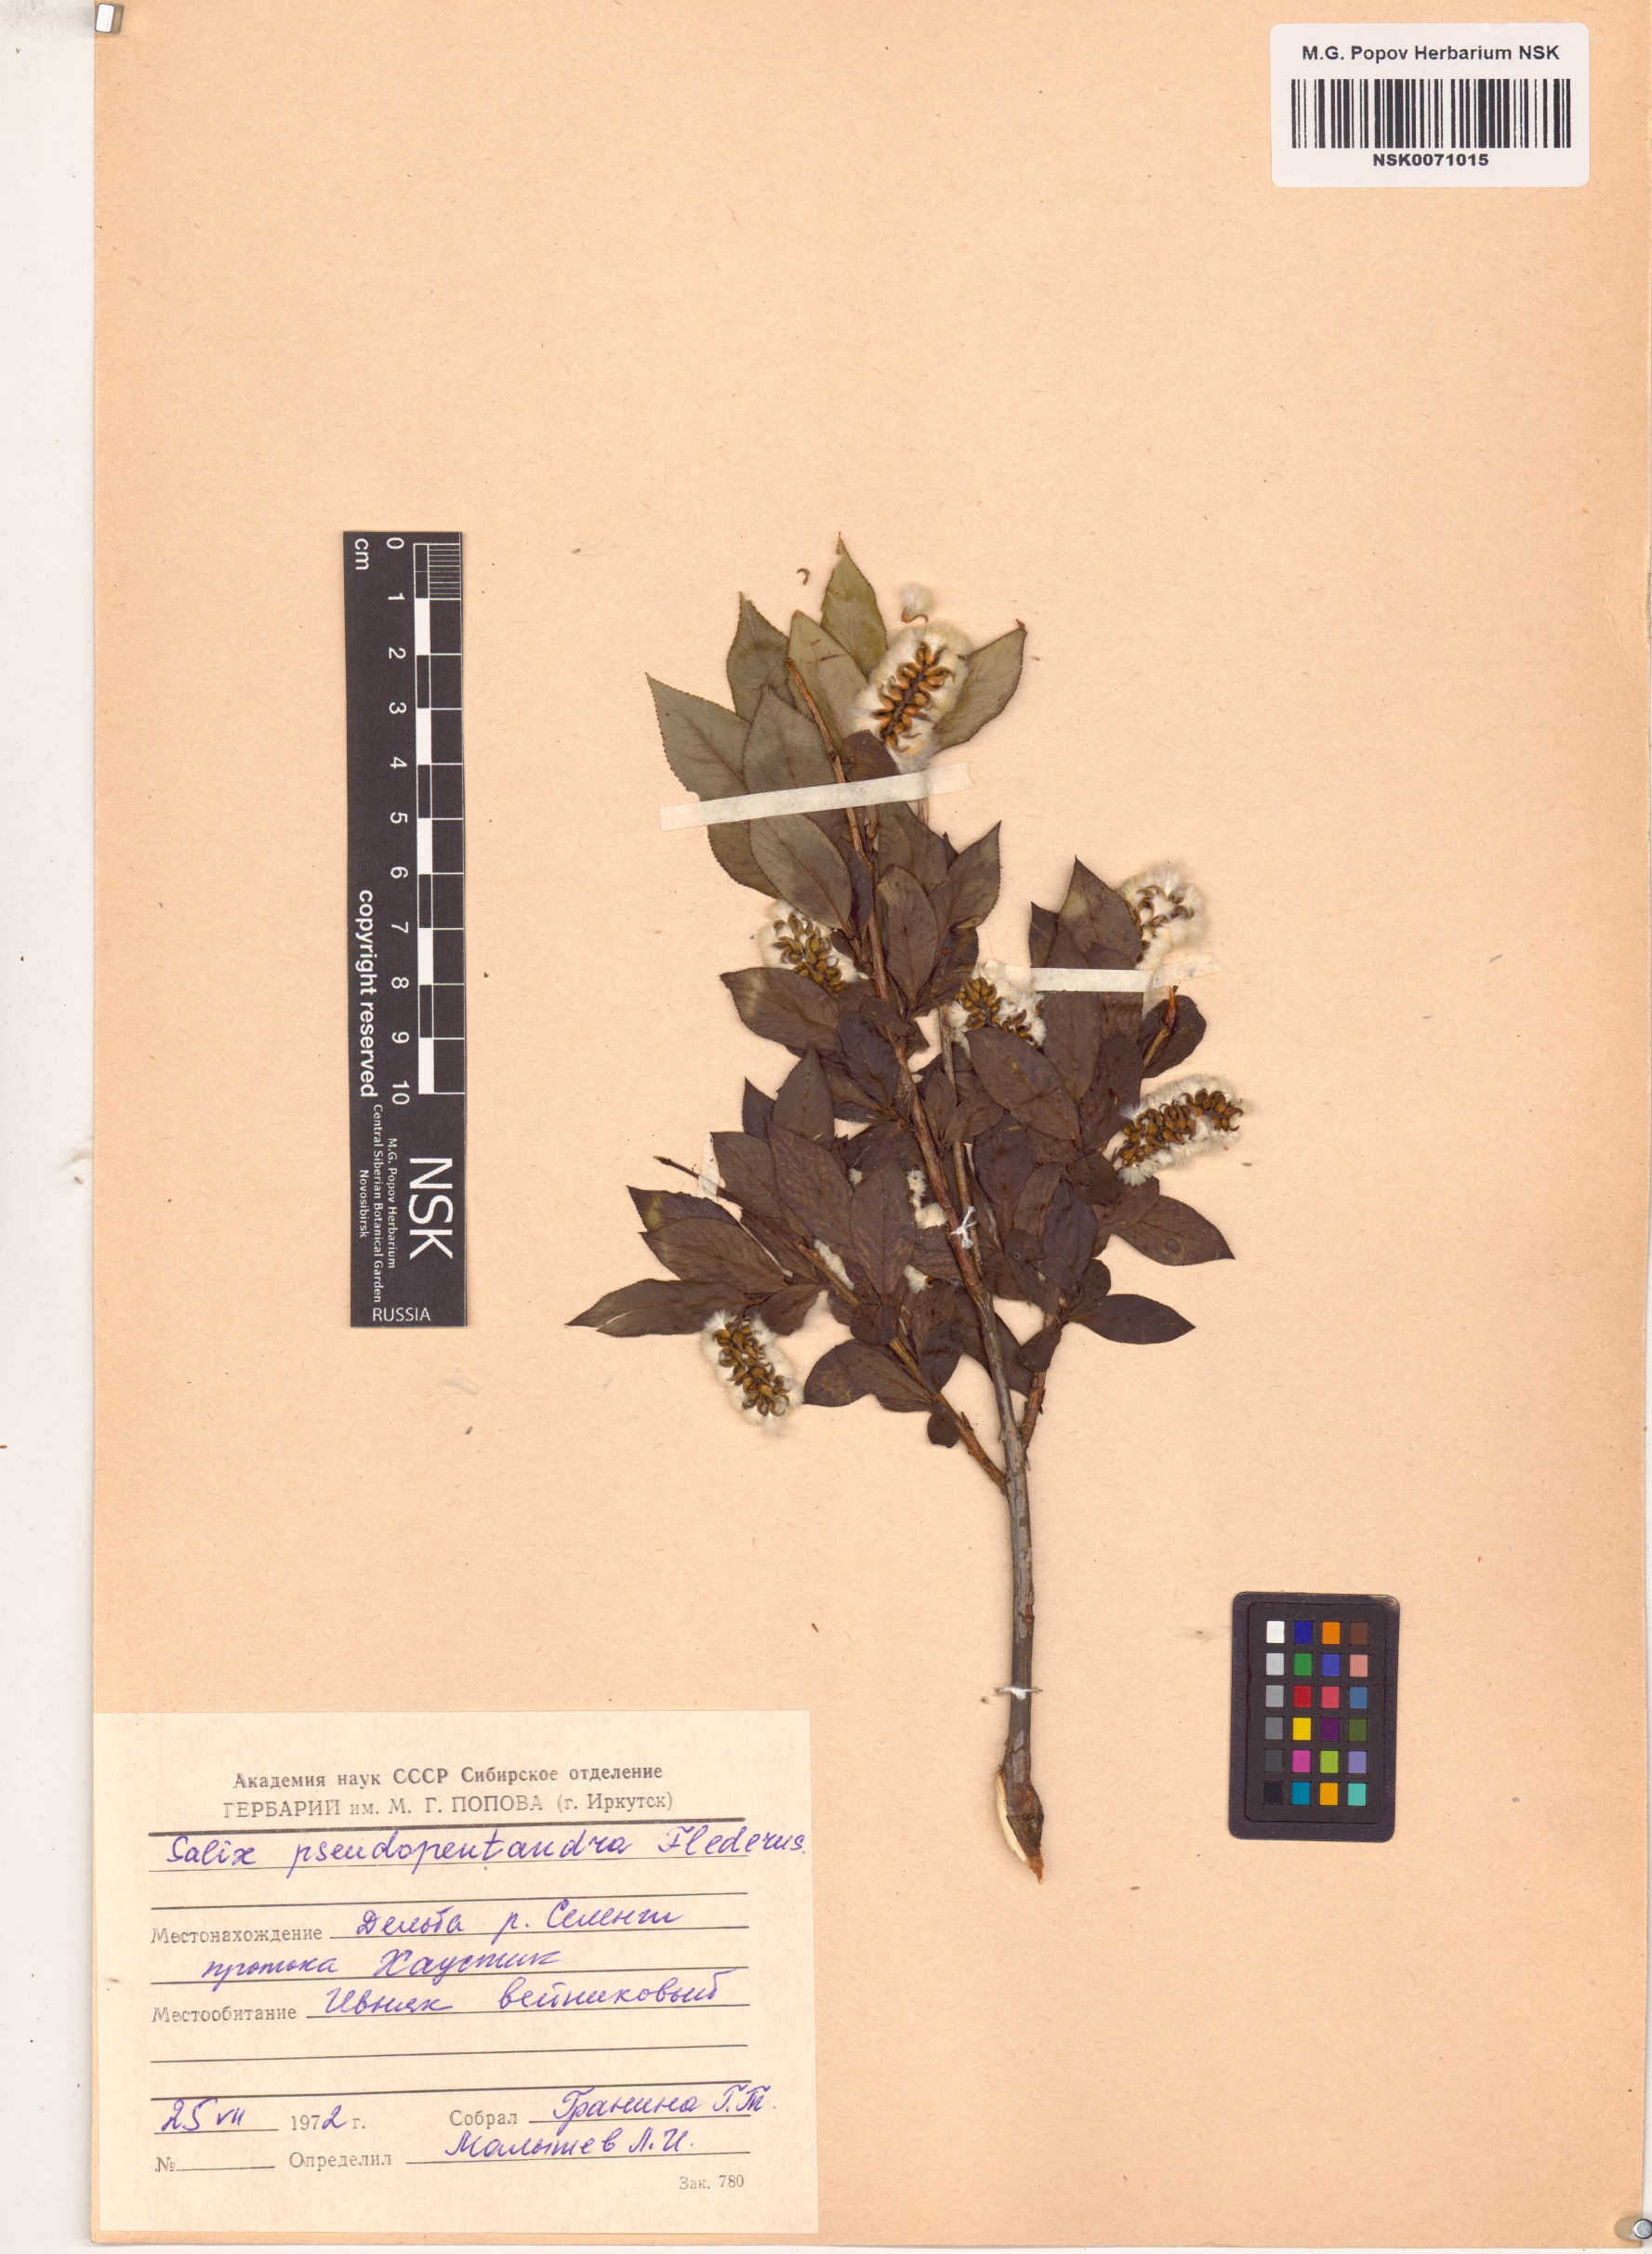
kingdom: Plantae
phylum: Tracheophyta
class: Magnoliopsida
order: Malpighiales
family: Salicaceae
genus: Salix
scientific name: Salix pseudopentandra
